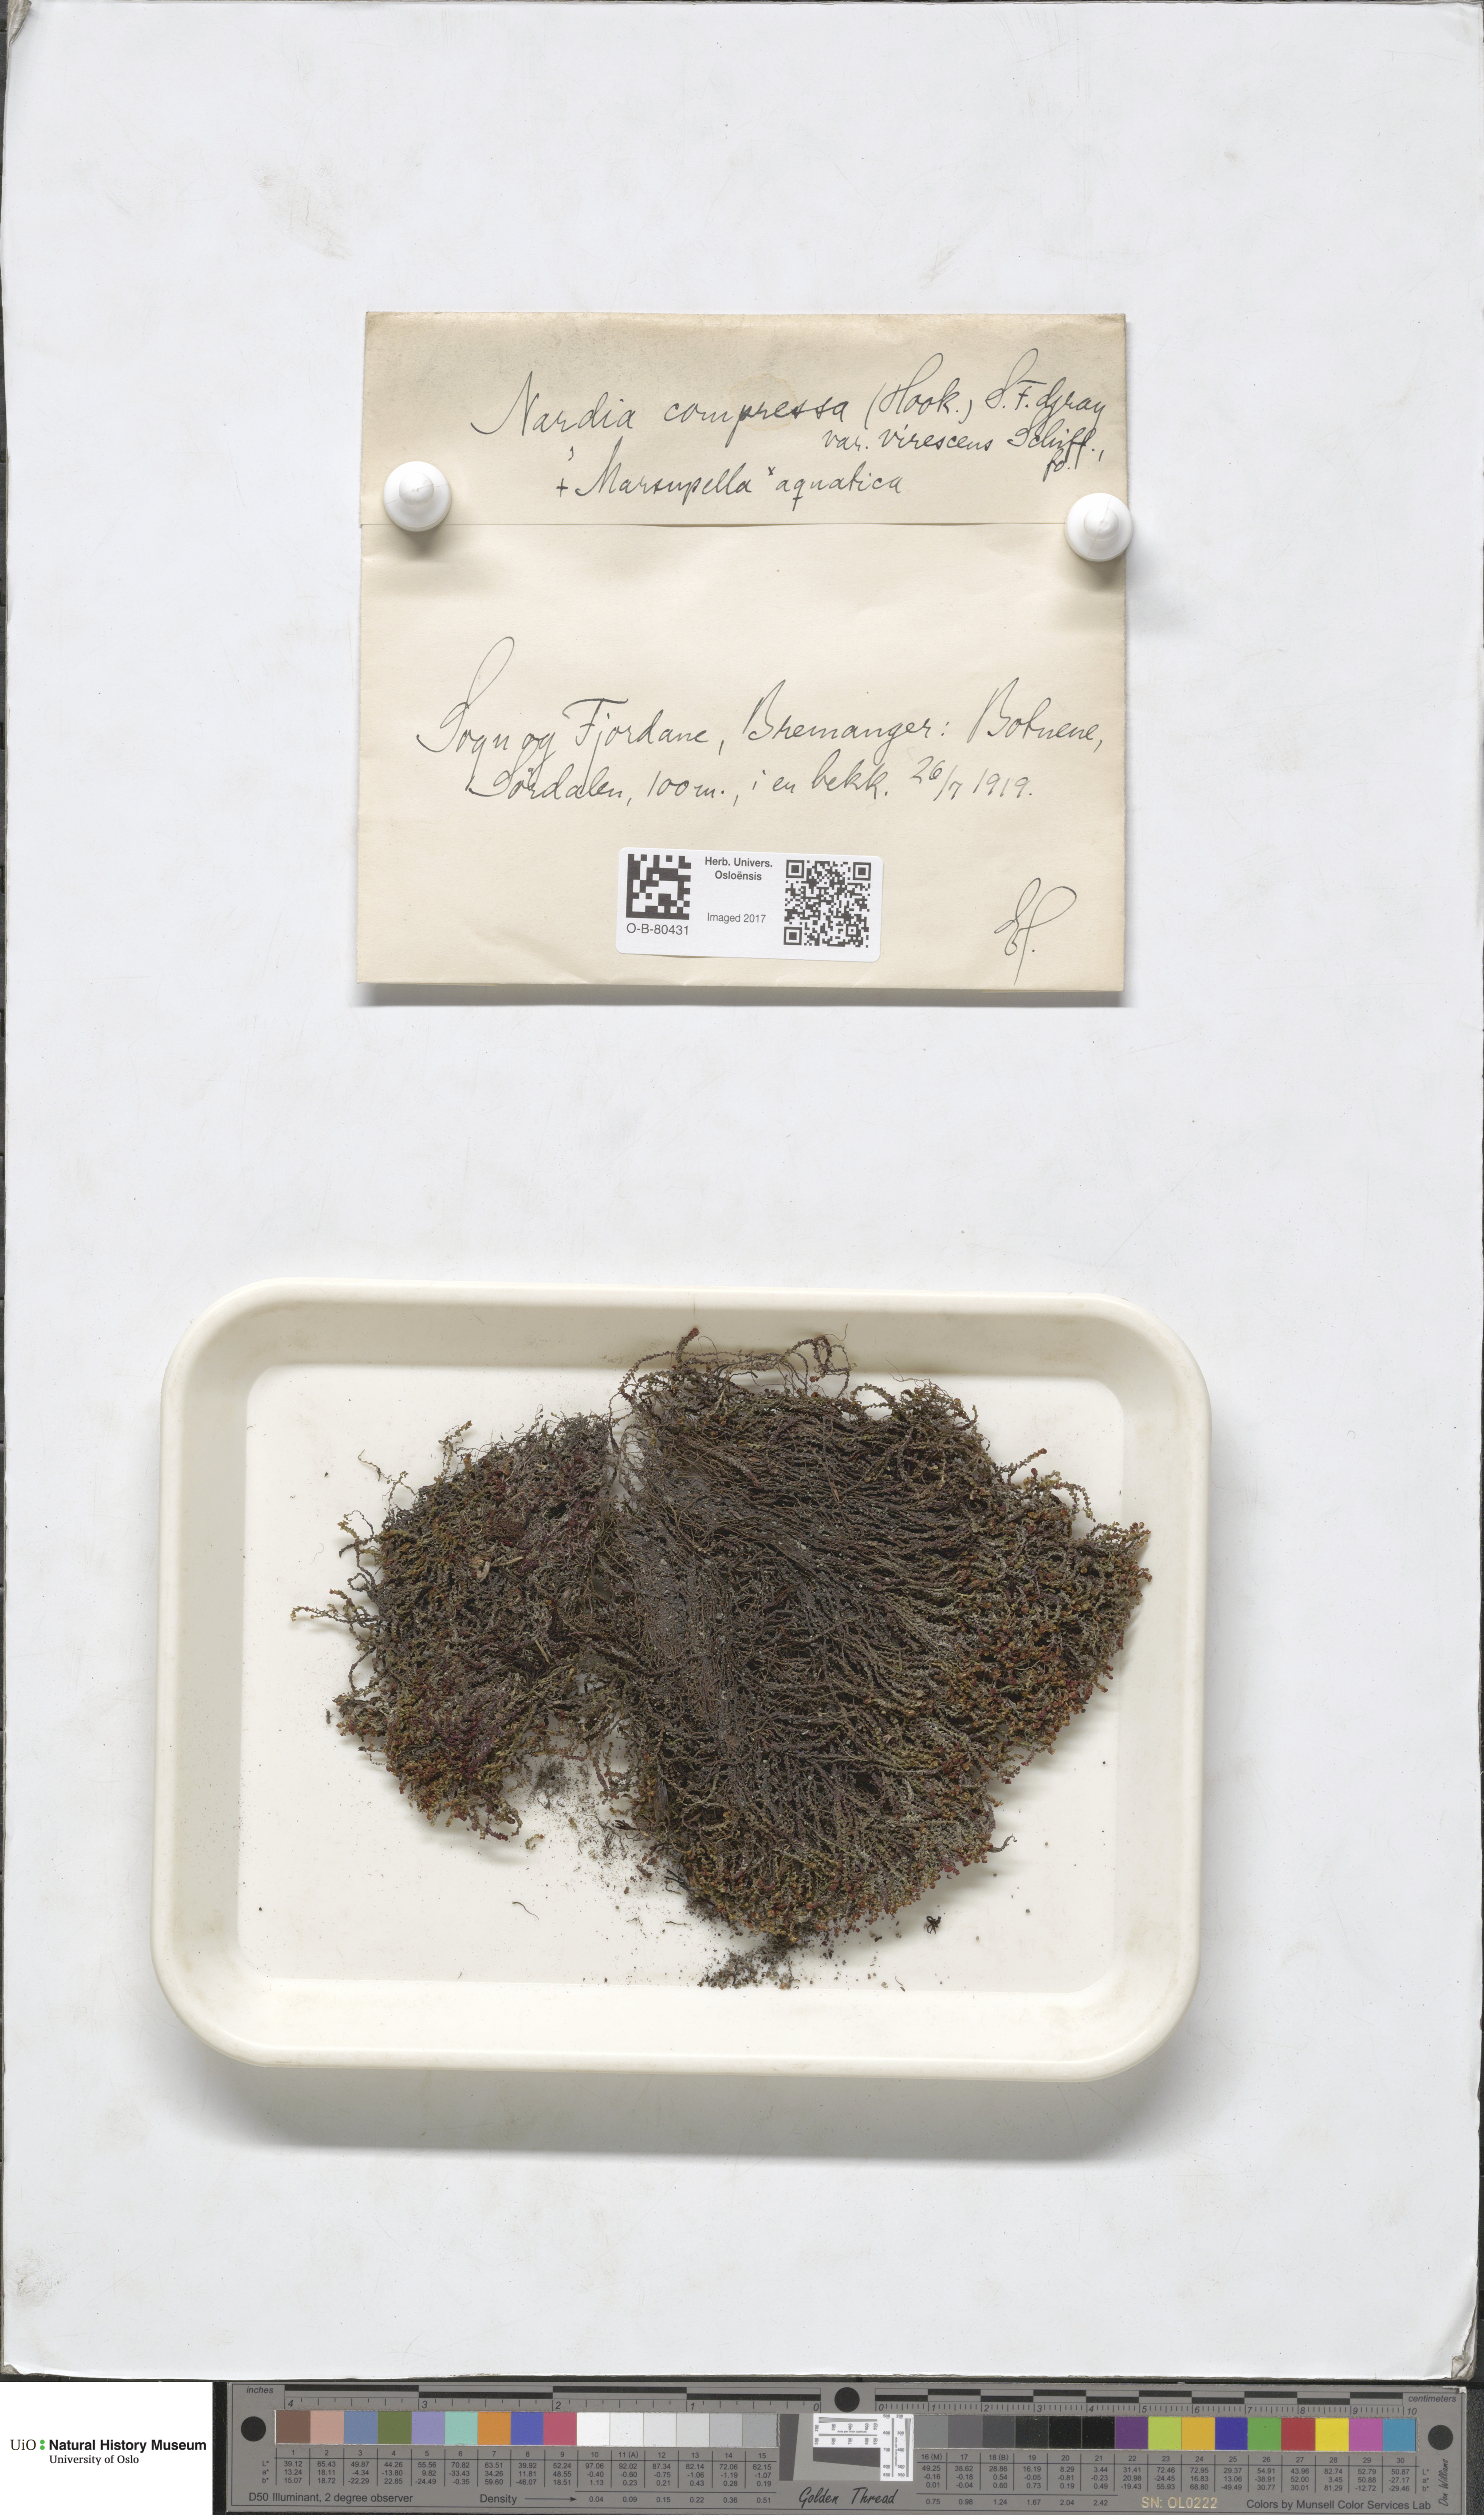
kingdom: Plantae
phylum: Marchantiophyta
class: Jungermanniopsida
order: Jungermanniales
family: Gymnomitriaceae
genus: Nardia
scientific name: Nardia compressa
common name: Compressed flapwort
